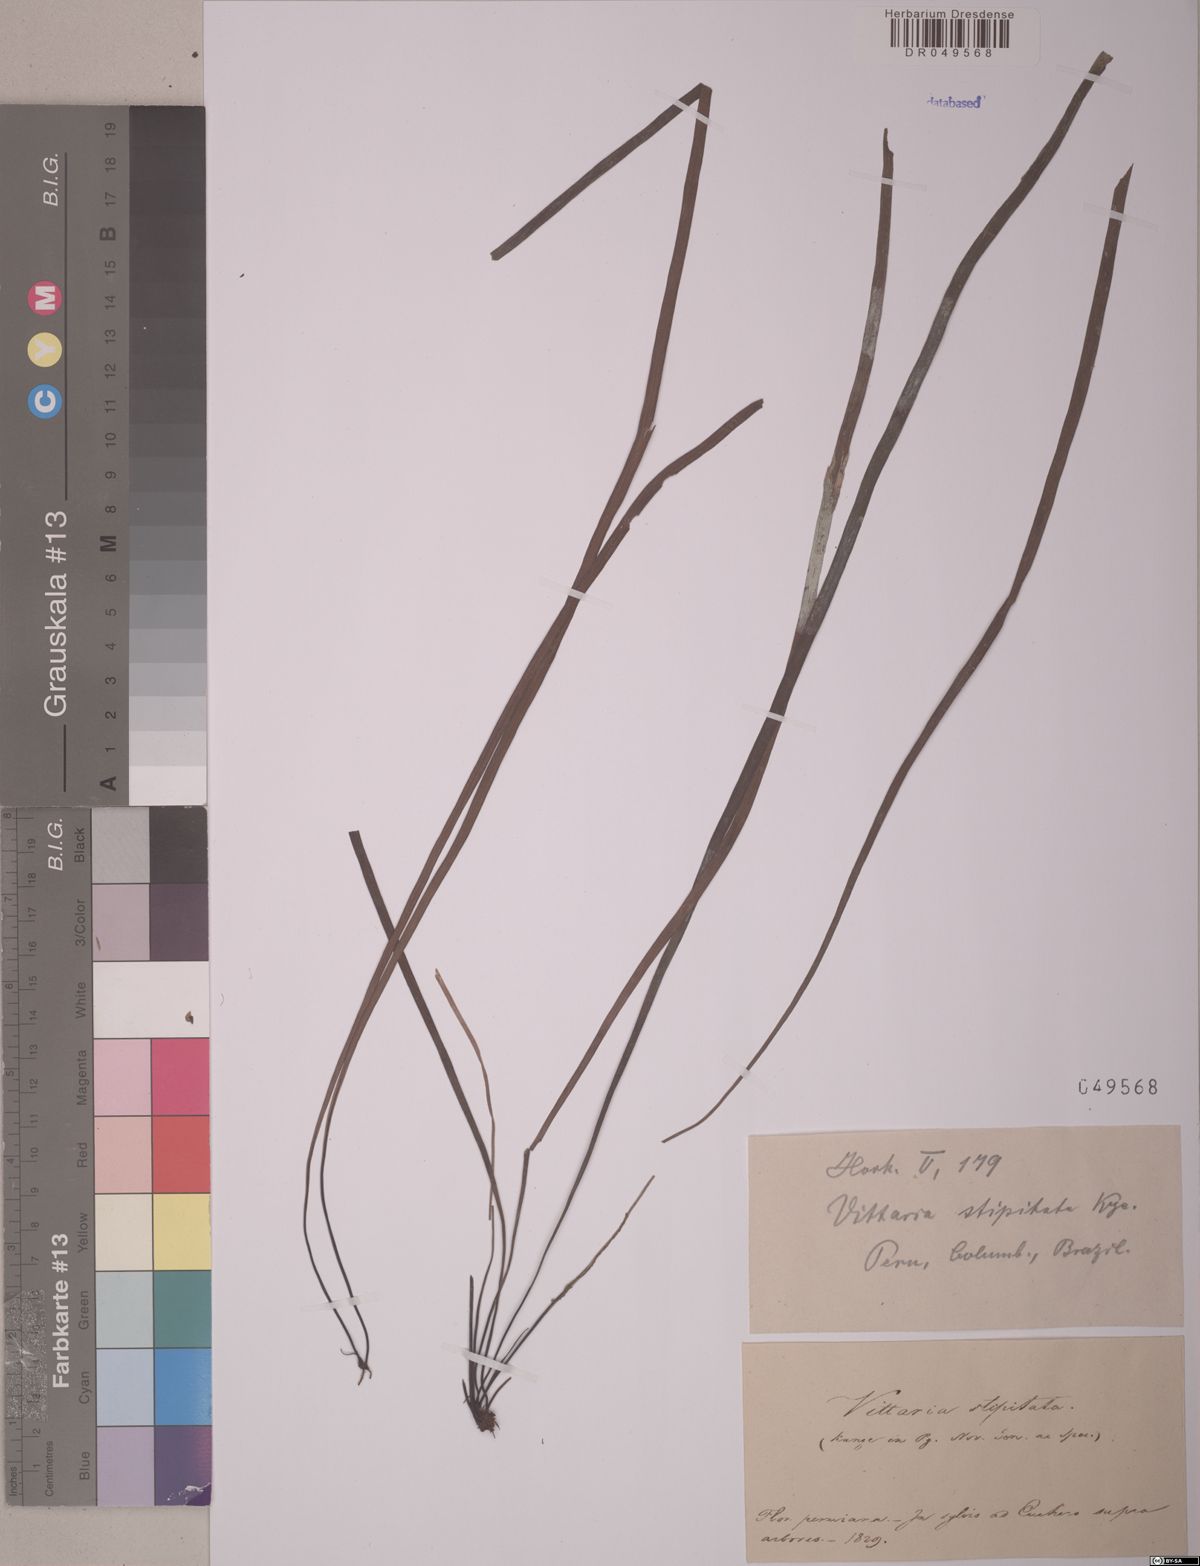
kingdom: Plantae
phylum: Tracheophyta
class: Polypodiopsida
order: Polypodiales
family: Pteridaceae
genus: Radiovittaria
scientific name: Radiovittaria stipitata
